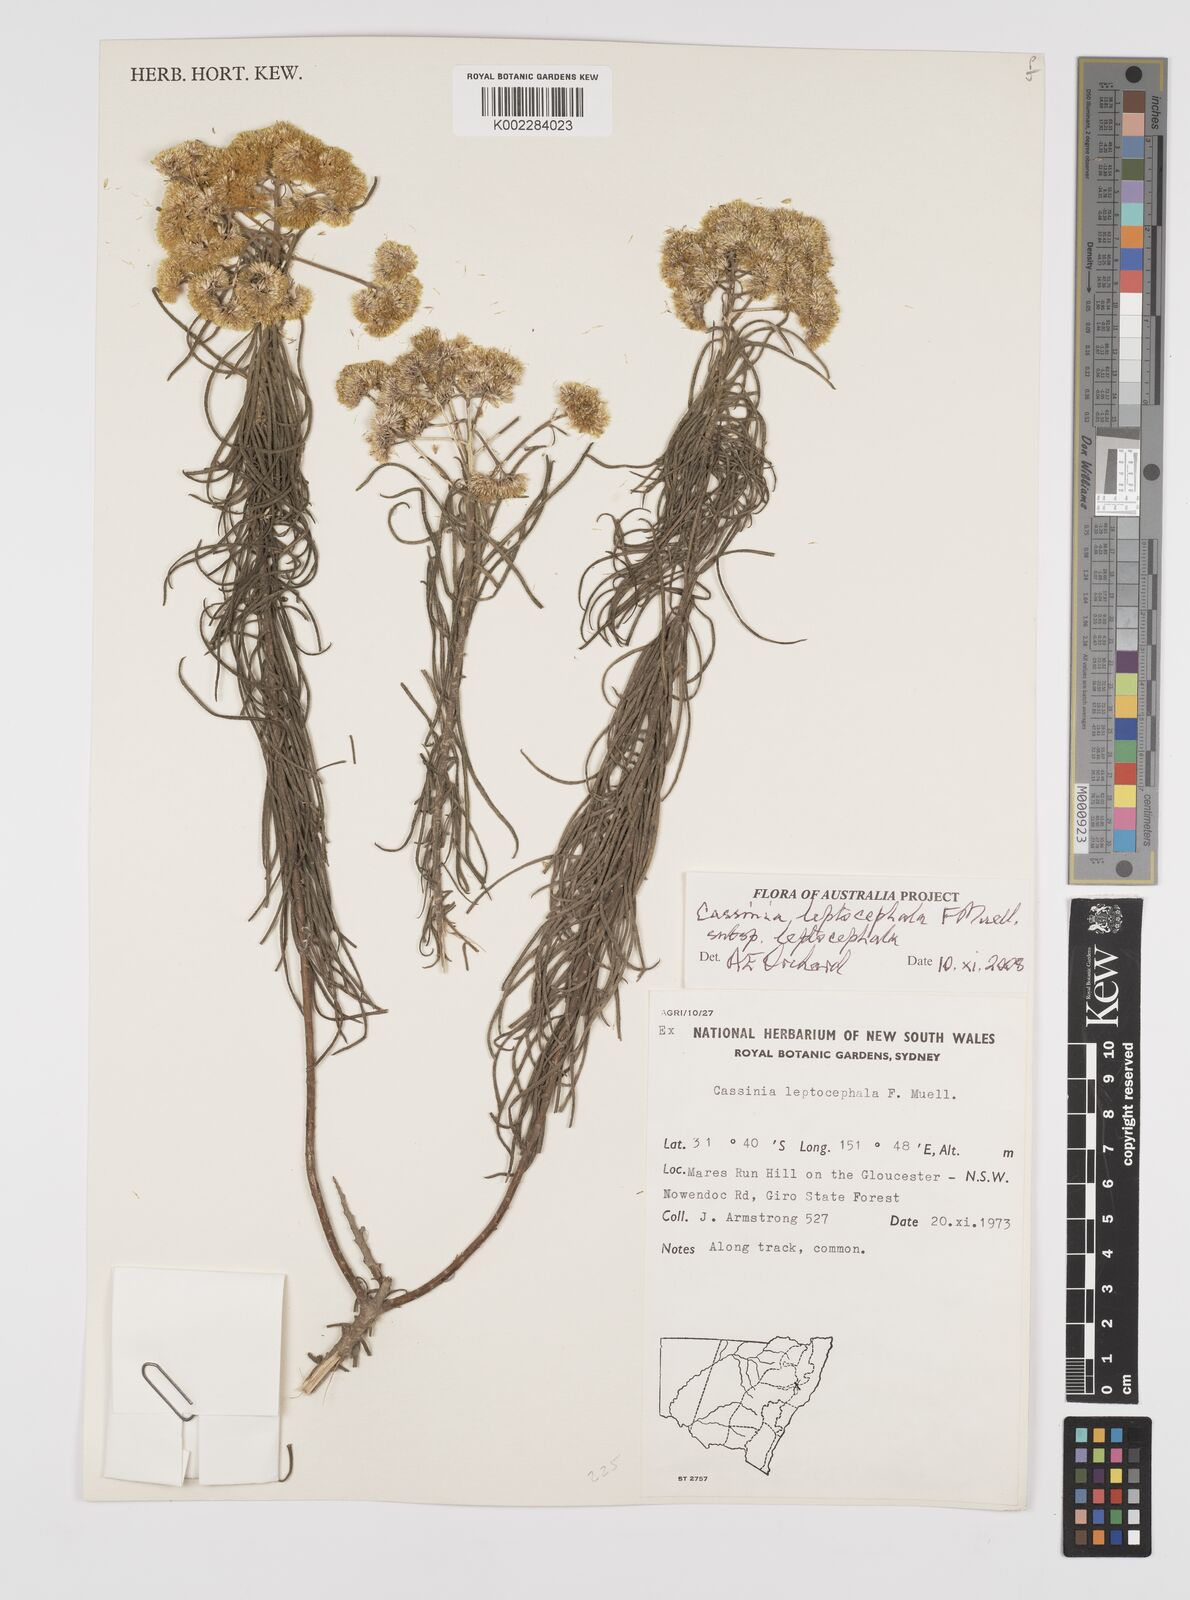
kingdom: Plantae
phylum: Tracheophyta
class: Magnoliopsida
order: Asterales
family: Asteraceae
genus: Cassinia
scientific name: Cassinia leptocephala
